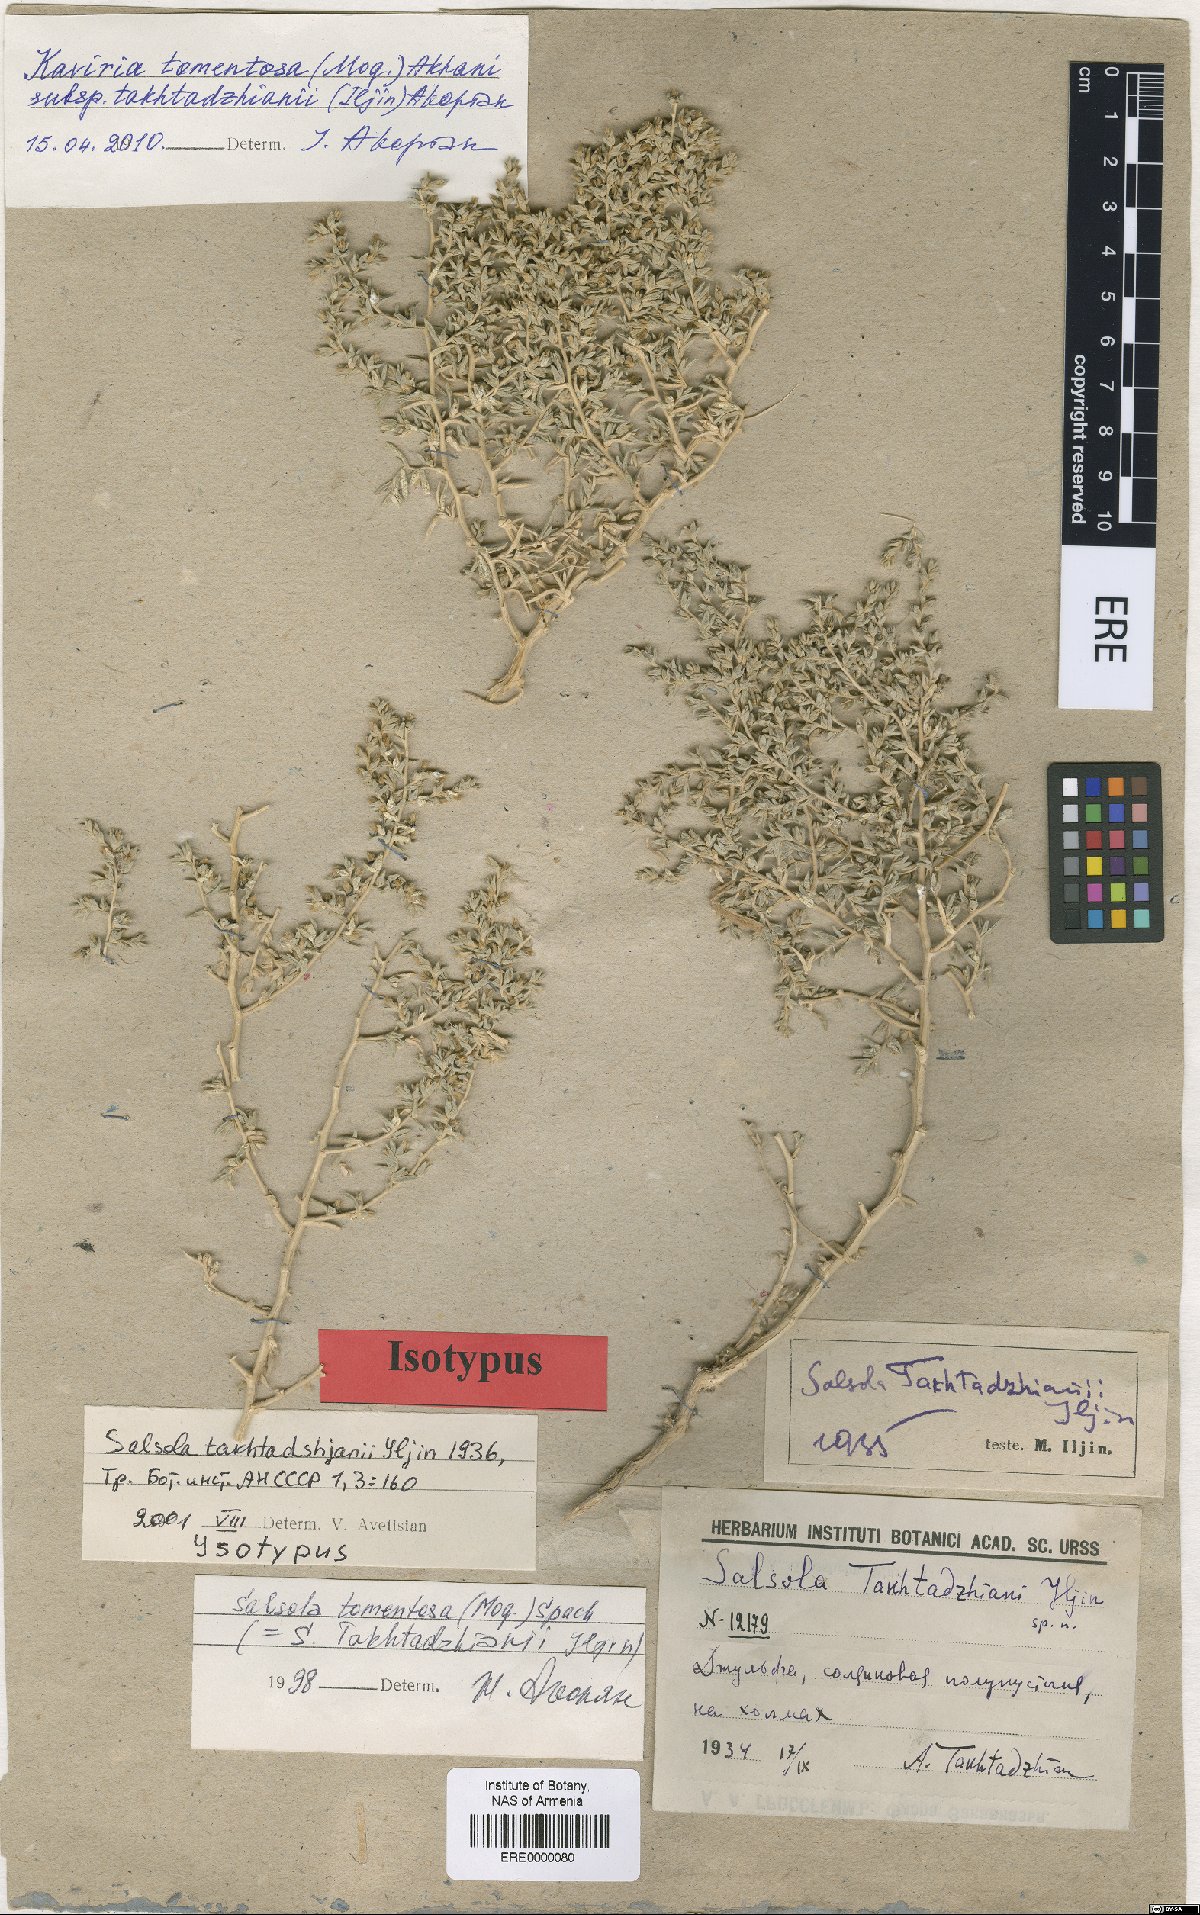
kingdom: Plantae
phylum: Tracheophyta
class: Magnoliopsida
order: Caryophyllales
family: Amaranthaceae
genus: Kaviria
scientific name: Kaviria tomentosa
